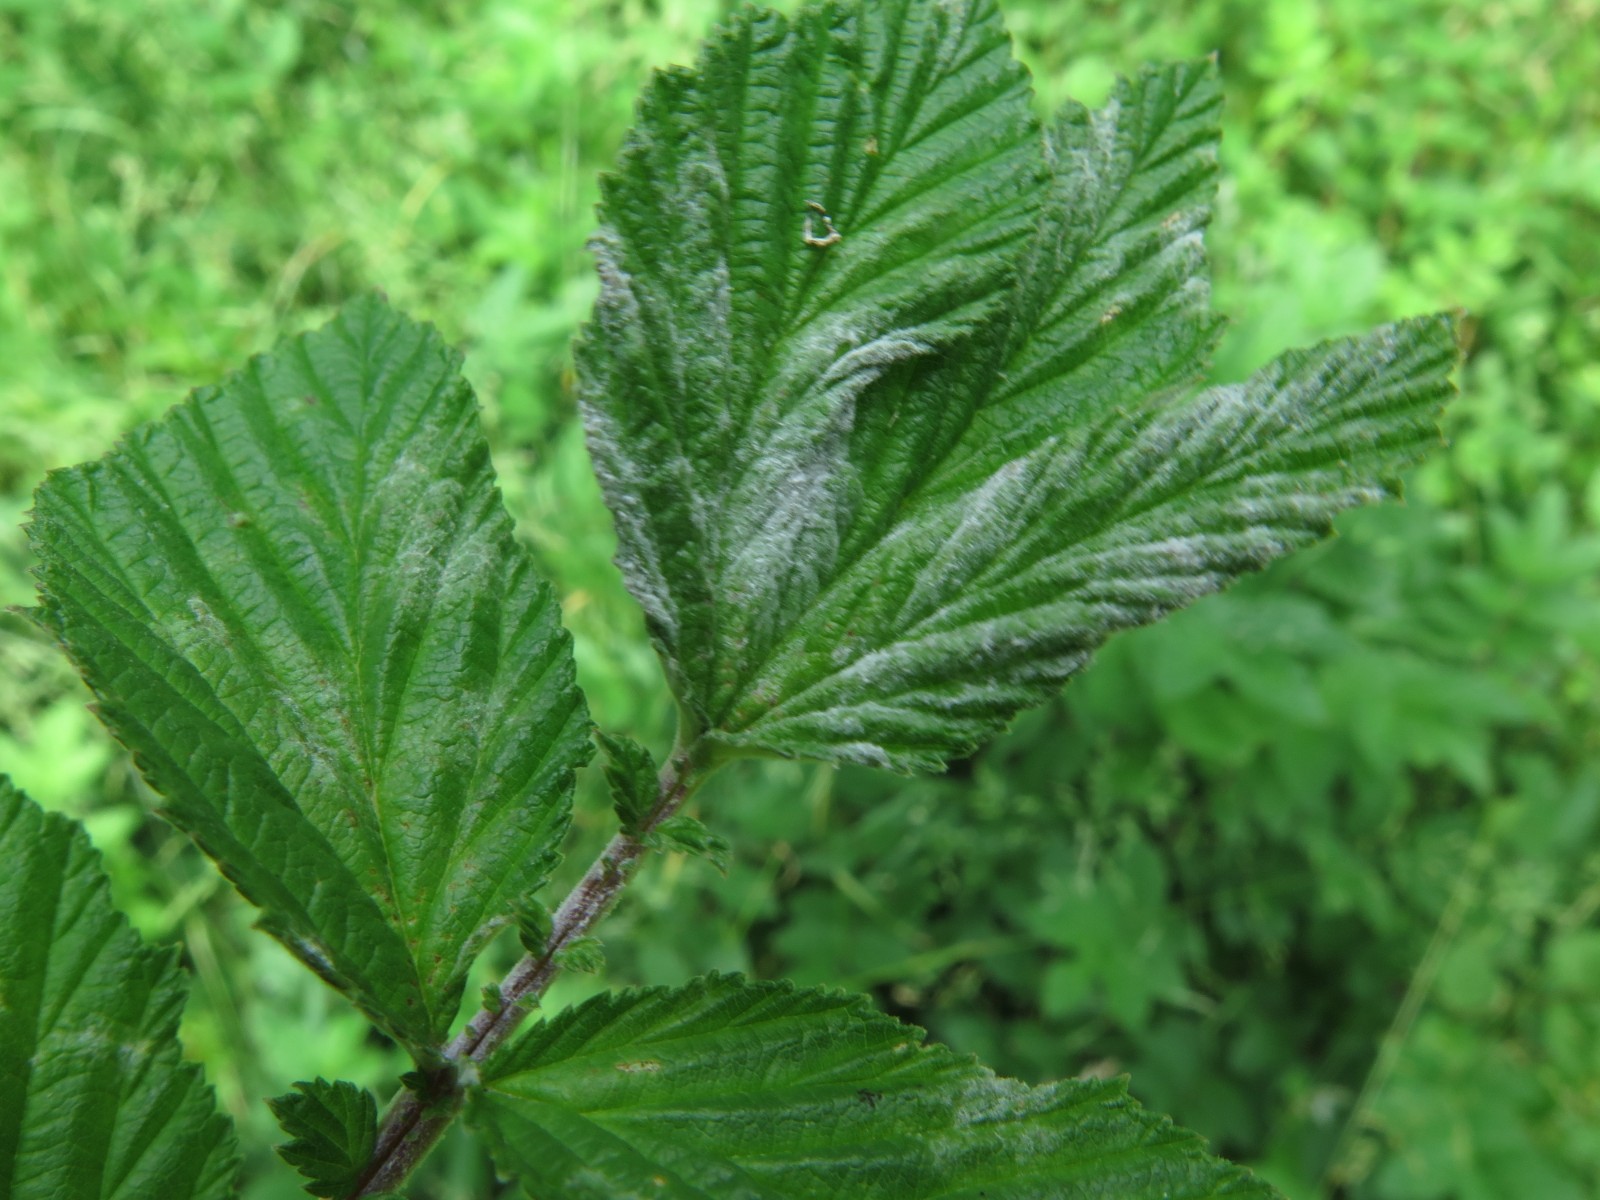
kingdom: Fungi
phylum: Ascomycota
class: Leotiomycetes
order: Helotiales
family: Erysiphaceae
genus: Podosphaera
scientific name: Podosphaera filipendulae
